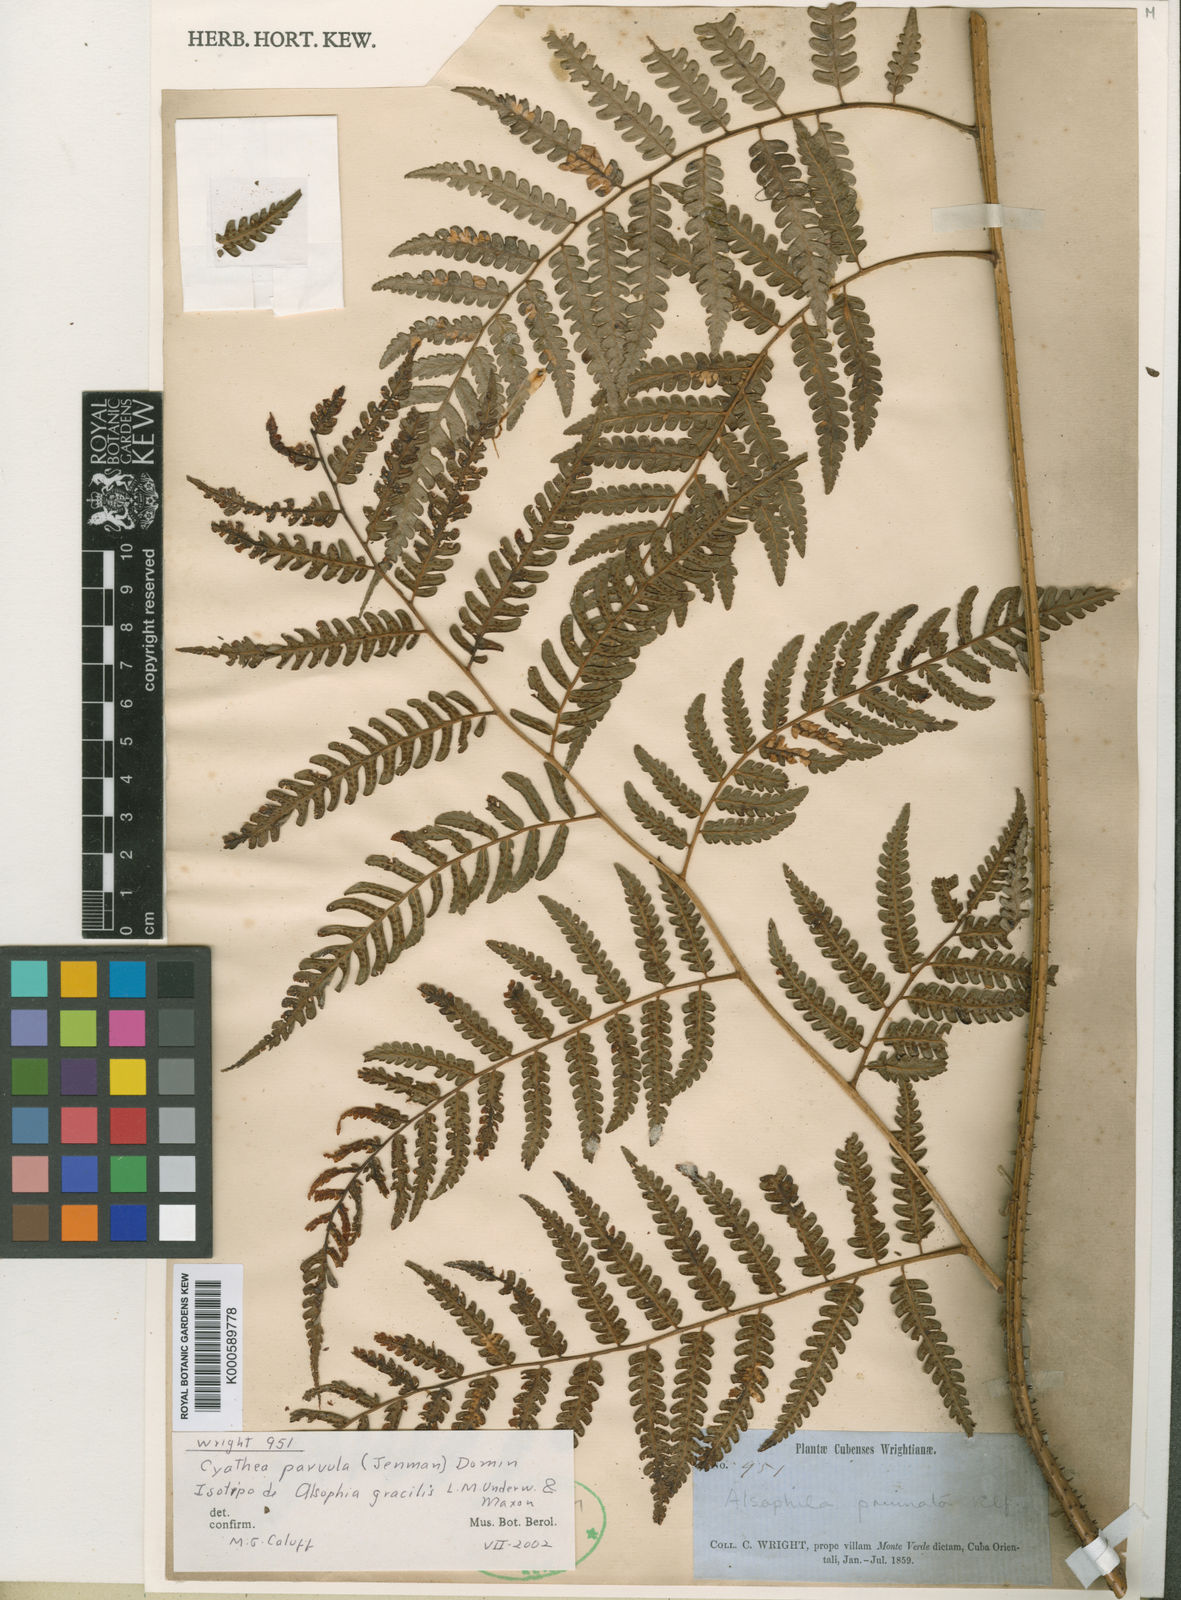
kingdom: Plantae
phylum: Tracheophyta
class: Polypodiopsida
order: Cyatheales
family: Cyatheaceae
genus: Cyathea
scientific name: Cyathea gracilis
